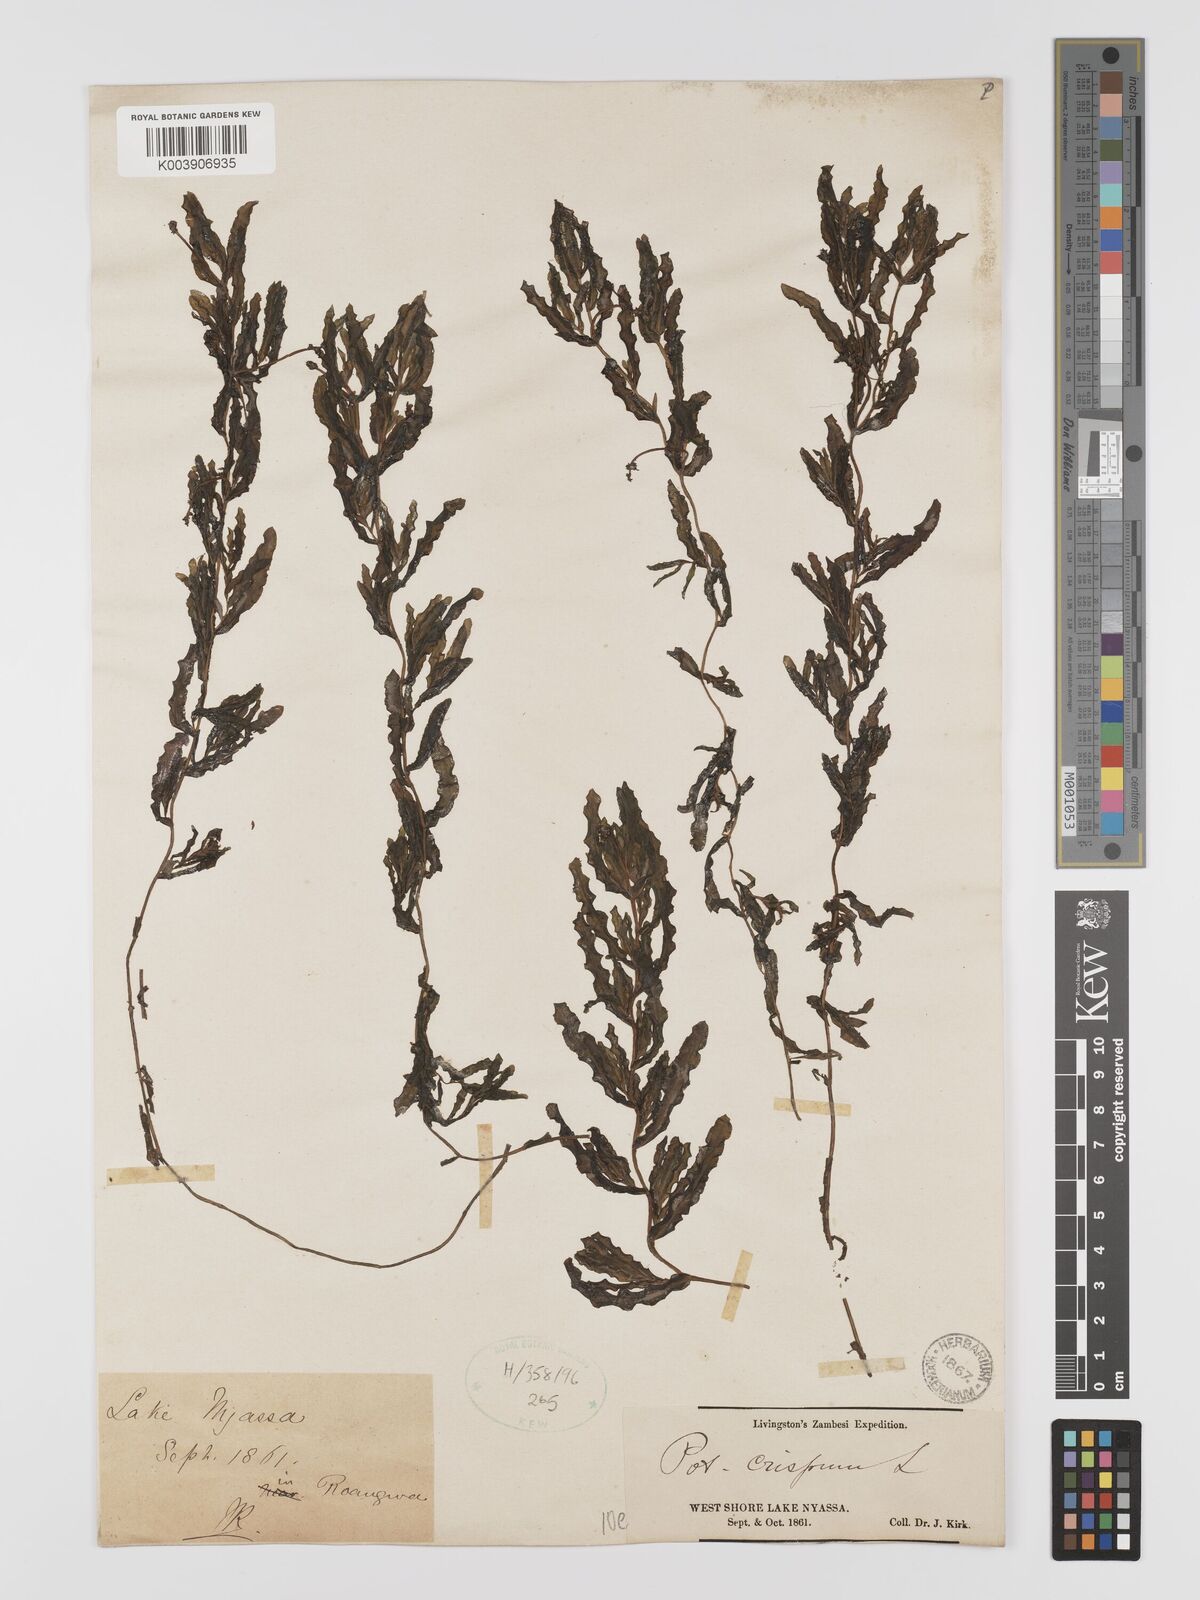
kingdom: Plantae
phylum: Tracheophyta
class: Liliopsida
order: Alismatales
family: Potamogetonaceae
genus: Potamogeton
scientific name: Potamogeton crispus
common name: Curled pondweed
